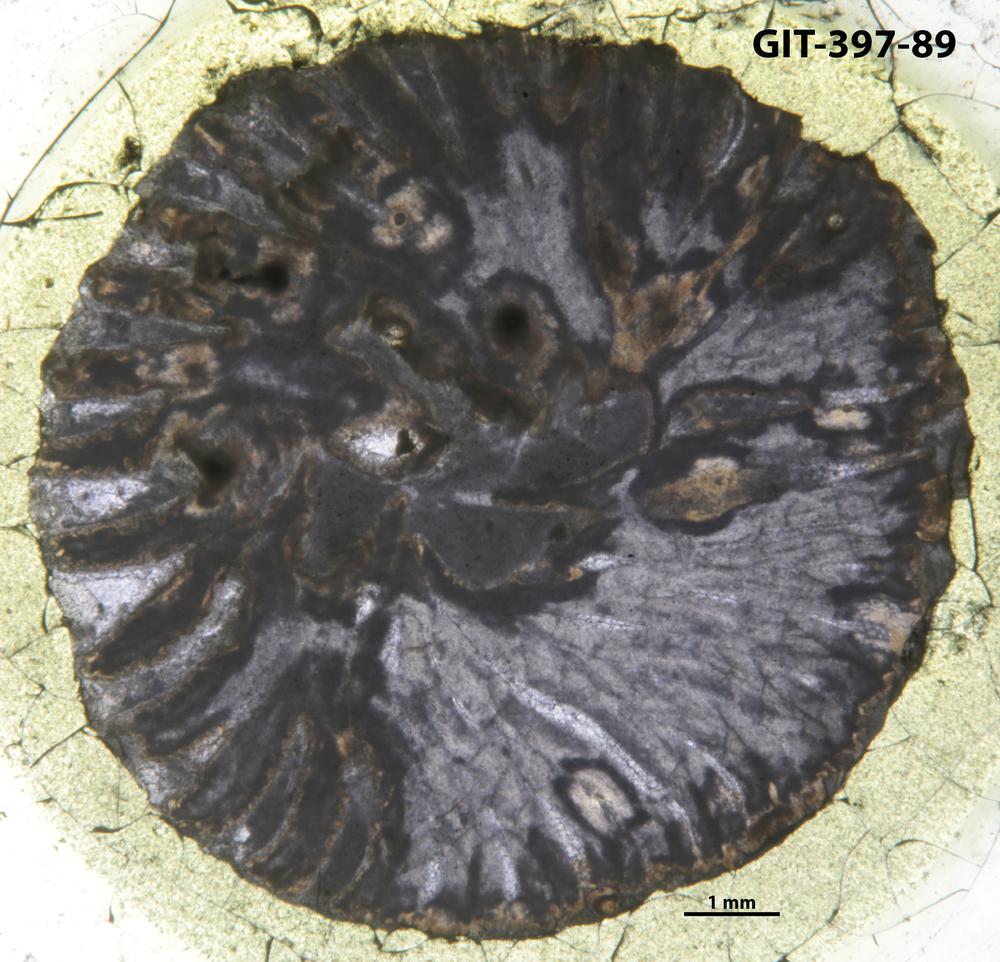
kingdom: Animalia
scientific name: Animalia
